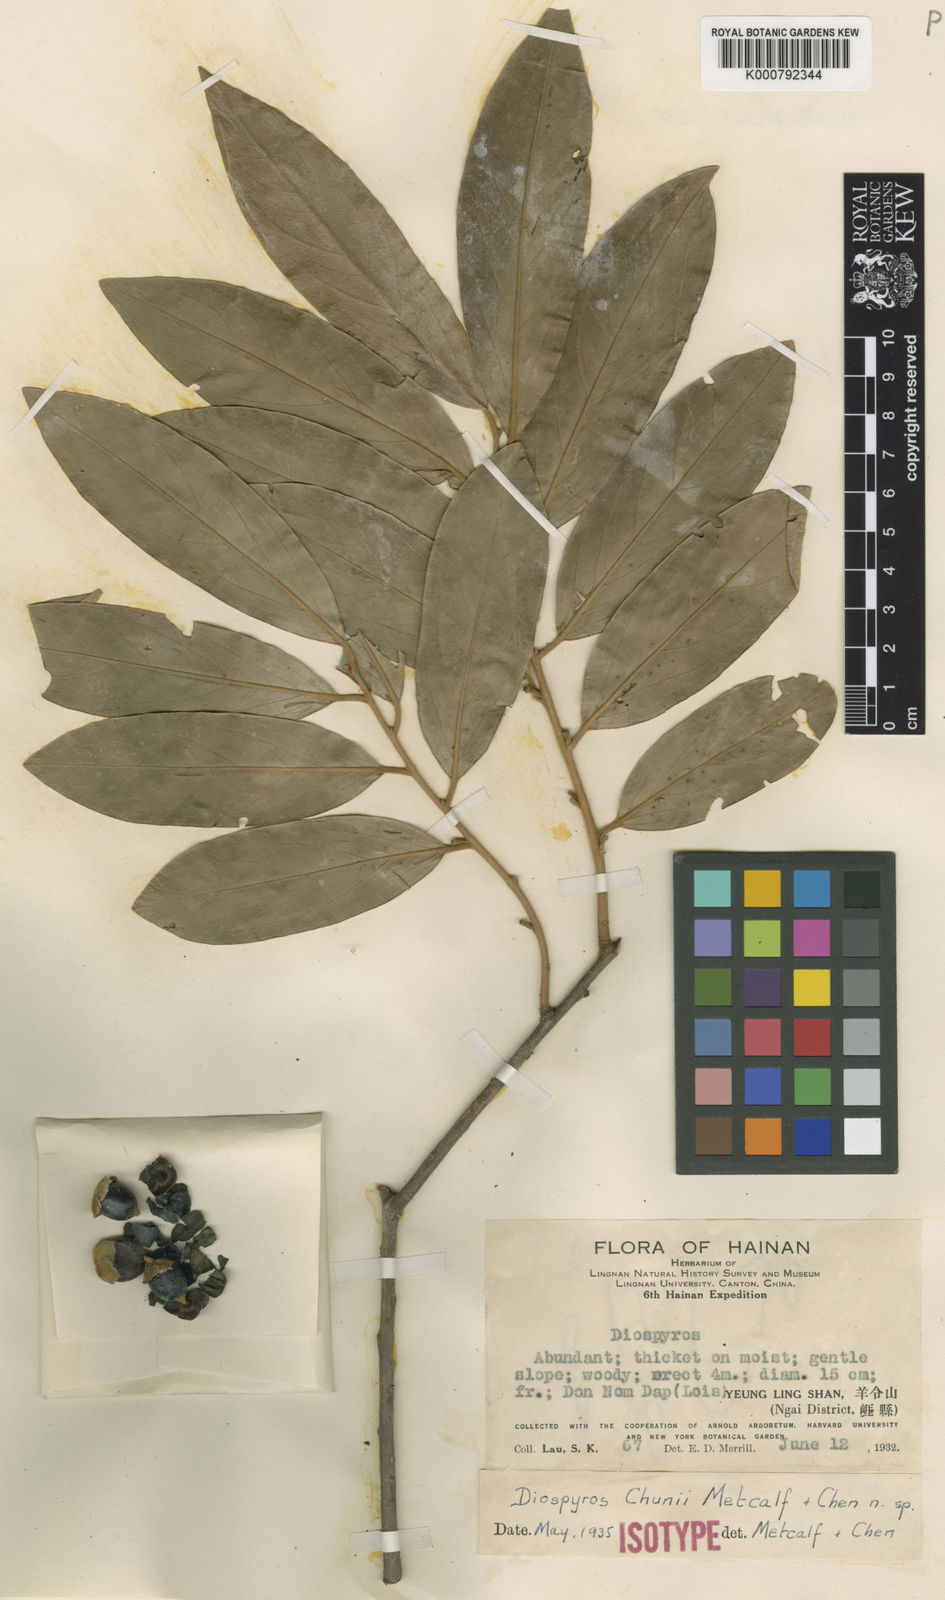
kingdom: Plantae
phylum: Tracheophyta
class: Magnoliopsida
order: Ericales
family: Ebenaceae
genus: Diospyros
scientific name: Diospyros chunii
